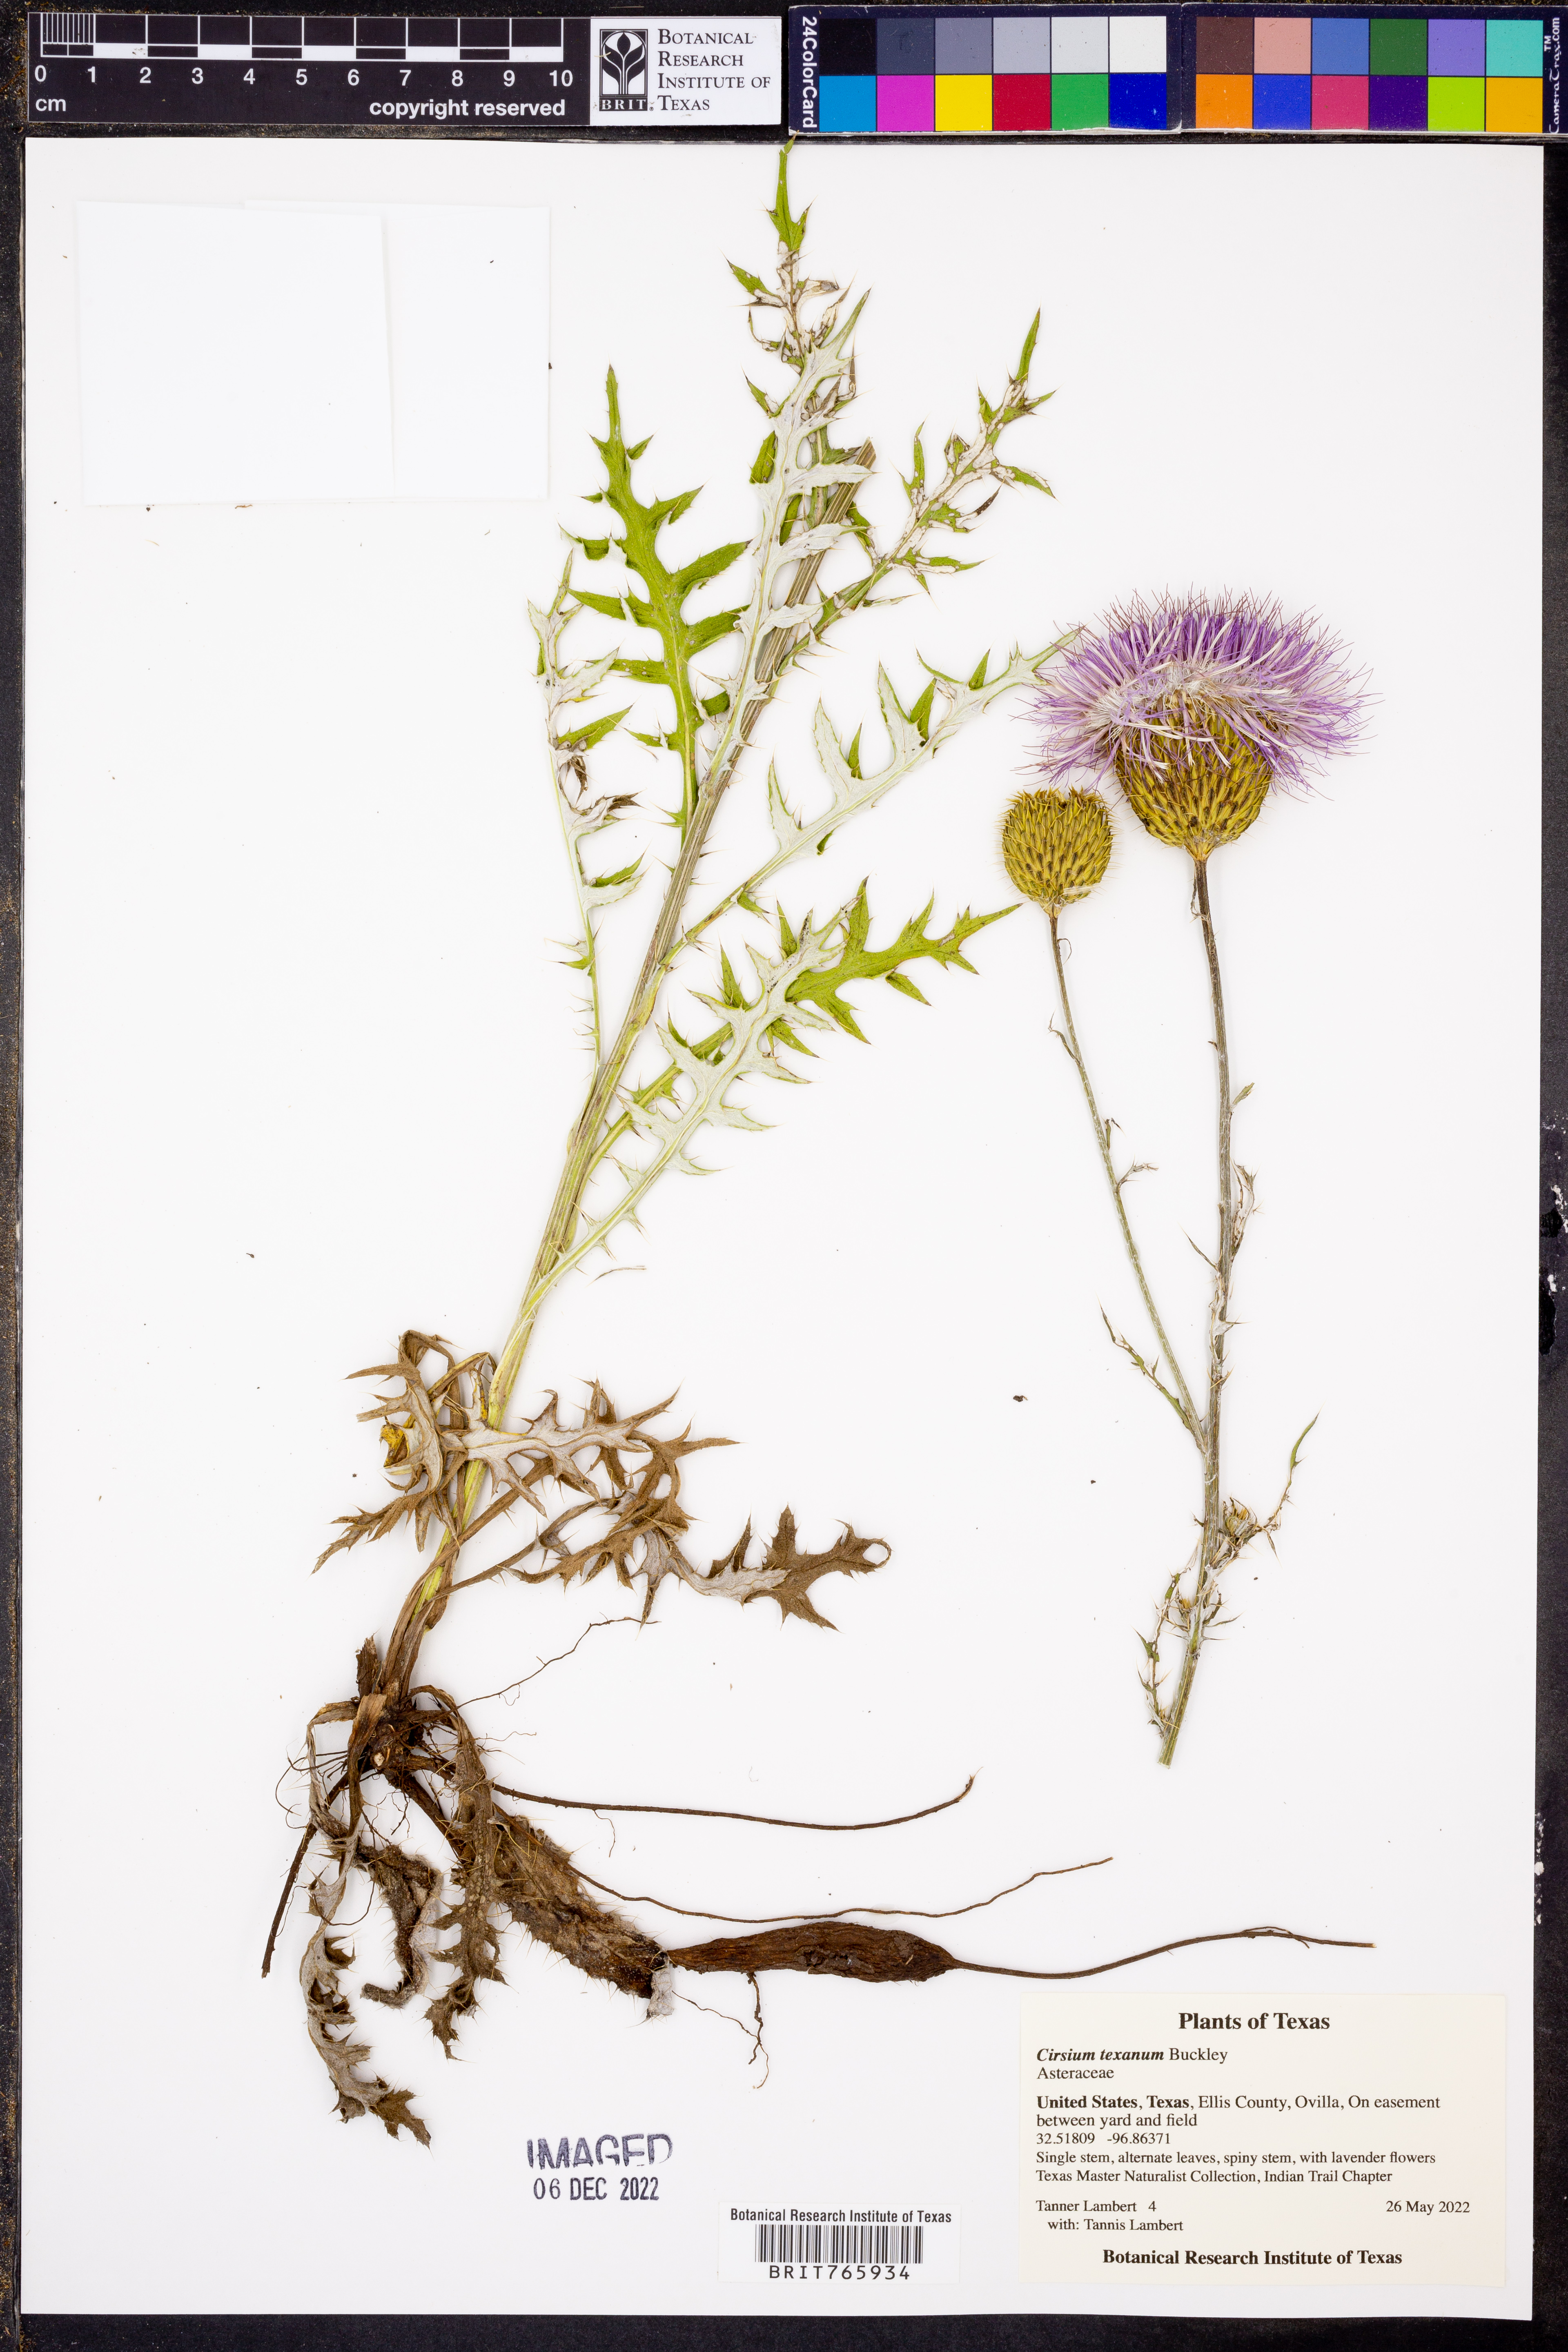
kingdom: Plantae
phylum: Tracheophyta
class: Magnoliopsida
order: Asterales
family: Asteraceae
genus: Cirsium
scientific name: Cirsium texanum
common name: Texas purple thistle
